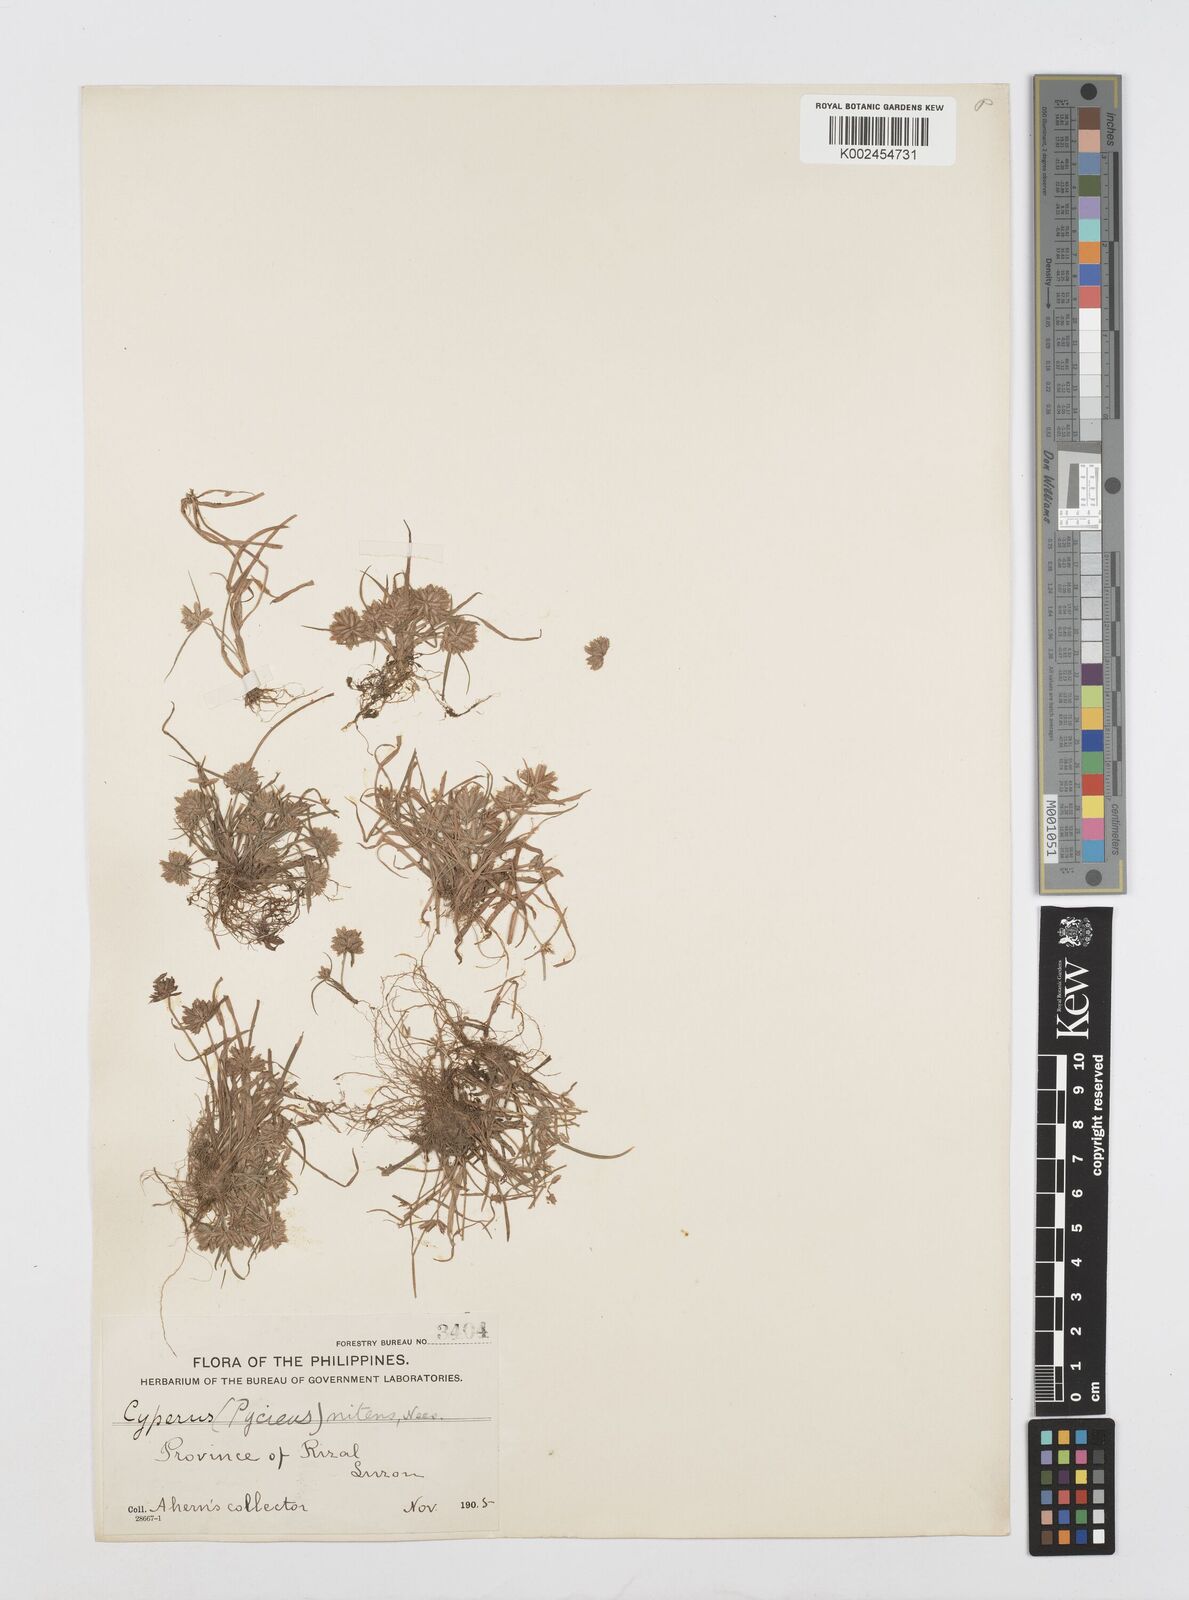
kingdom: Plantae
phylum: Tracheophyta
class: Liliopsida
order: Poales
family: Cyperaceae
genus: Cyperus
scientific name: Cyperus pumilus
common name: Low flatsedge
